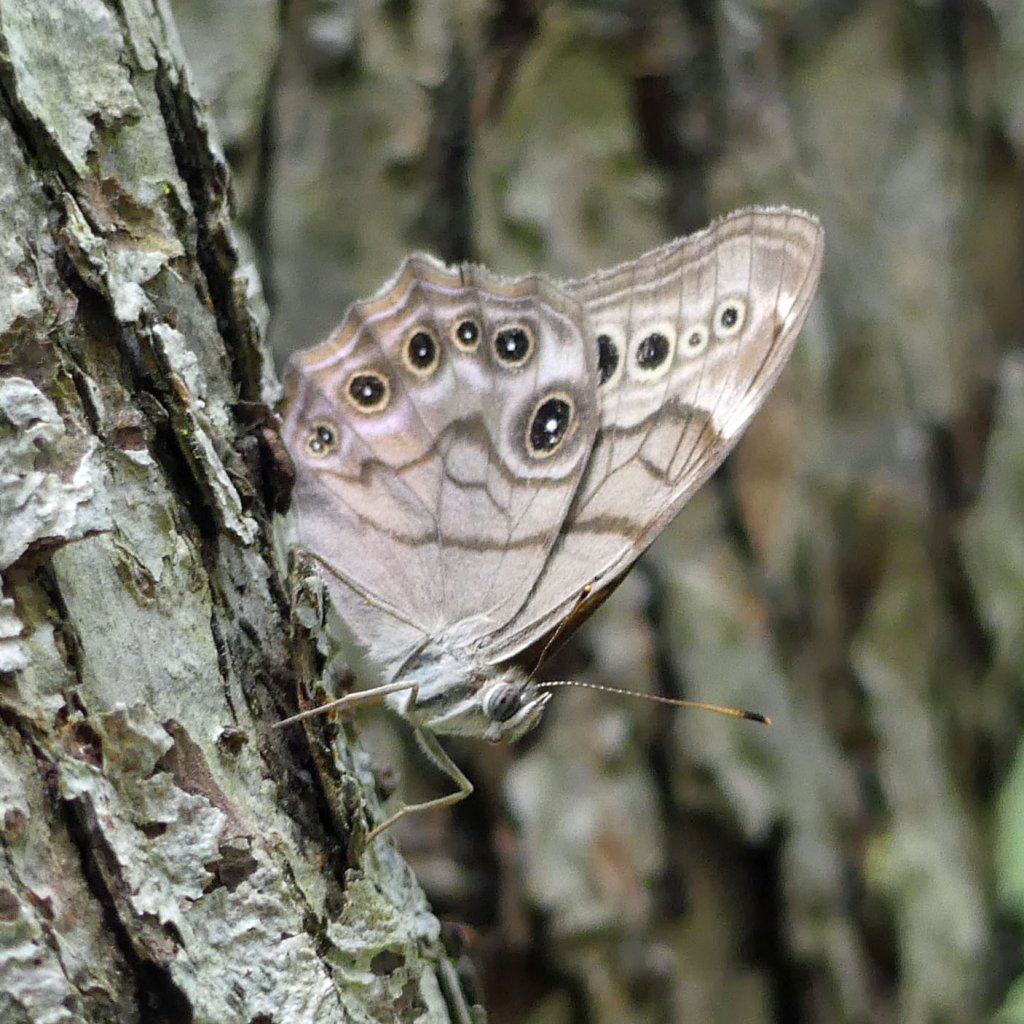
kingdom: Animalia
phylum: Arthropoda
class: Insecta
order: Lepidoptera
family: Nymphalidae
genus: Lethe
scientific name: Lethe anthedon
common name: Northern Pearly-Eye
